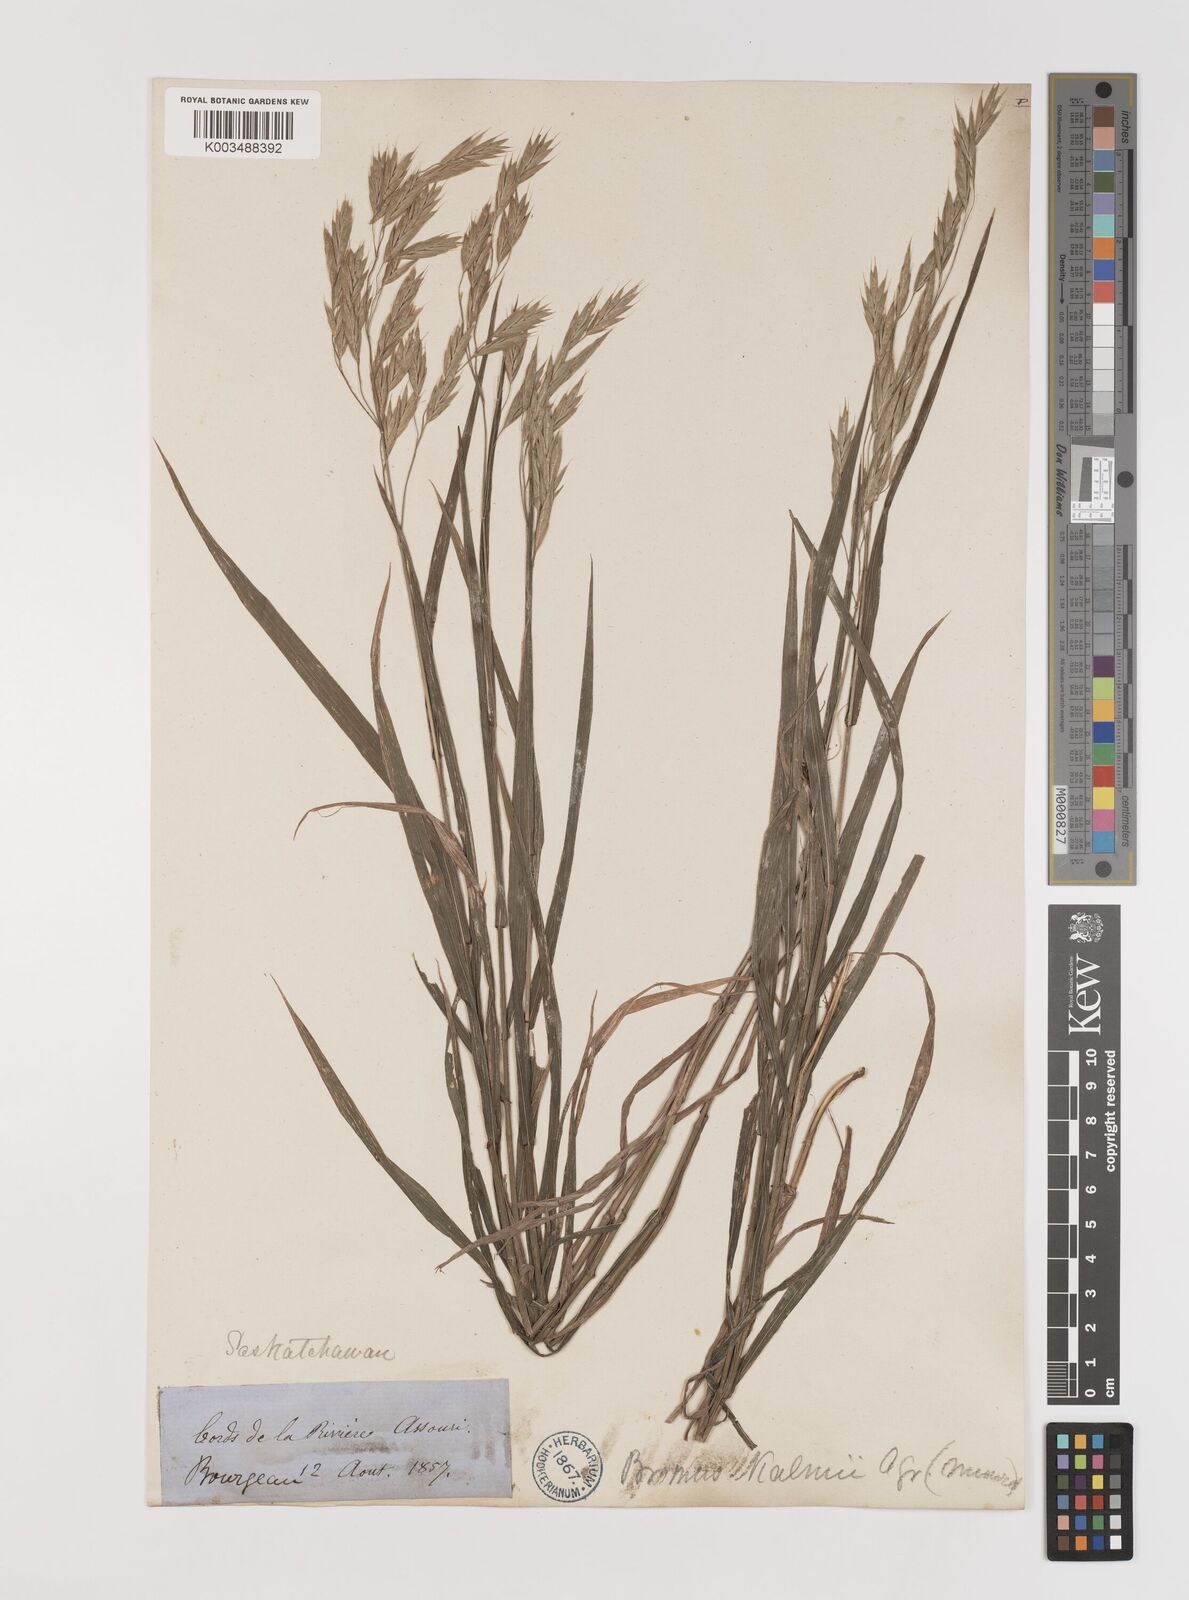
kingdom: Plantae
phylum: Tracheophyta
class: Liliopsida
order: Poales
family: Poaceae
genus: Bromus
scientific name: Bromus ciliatus
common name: Fringe brome
